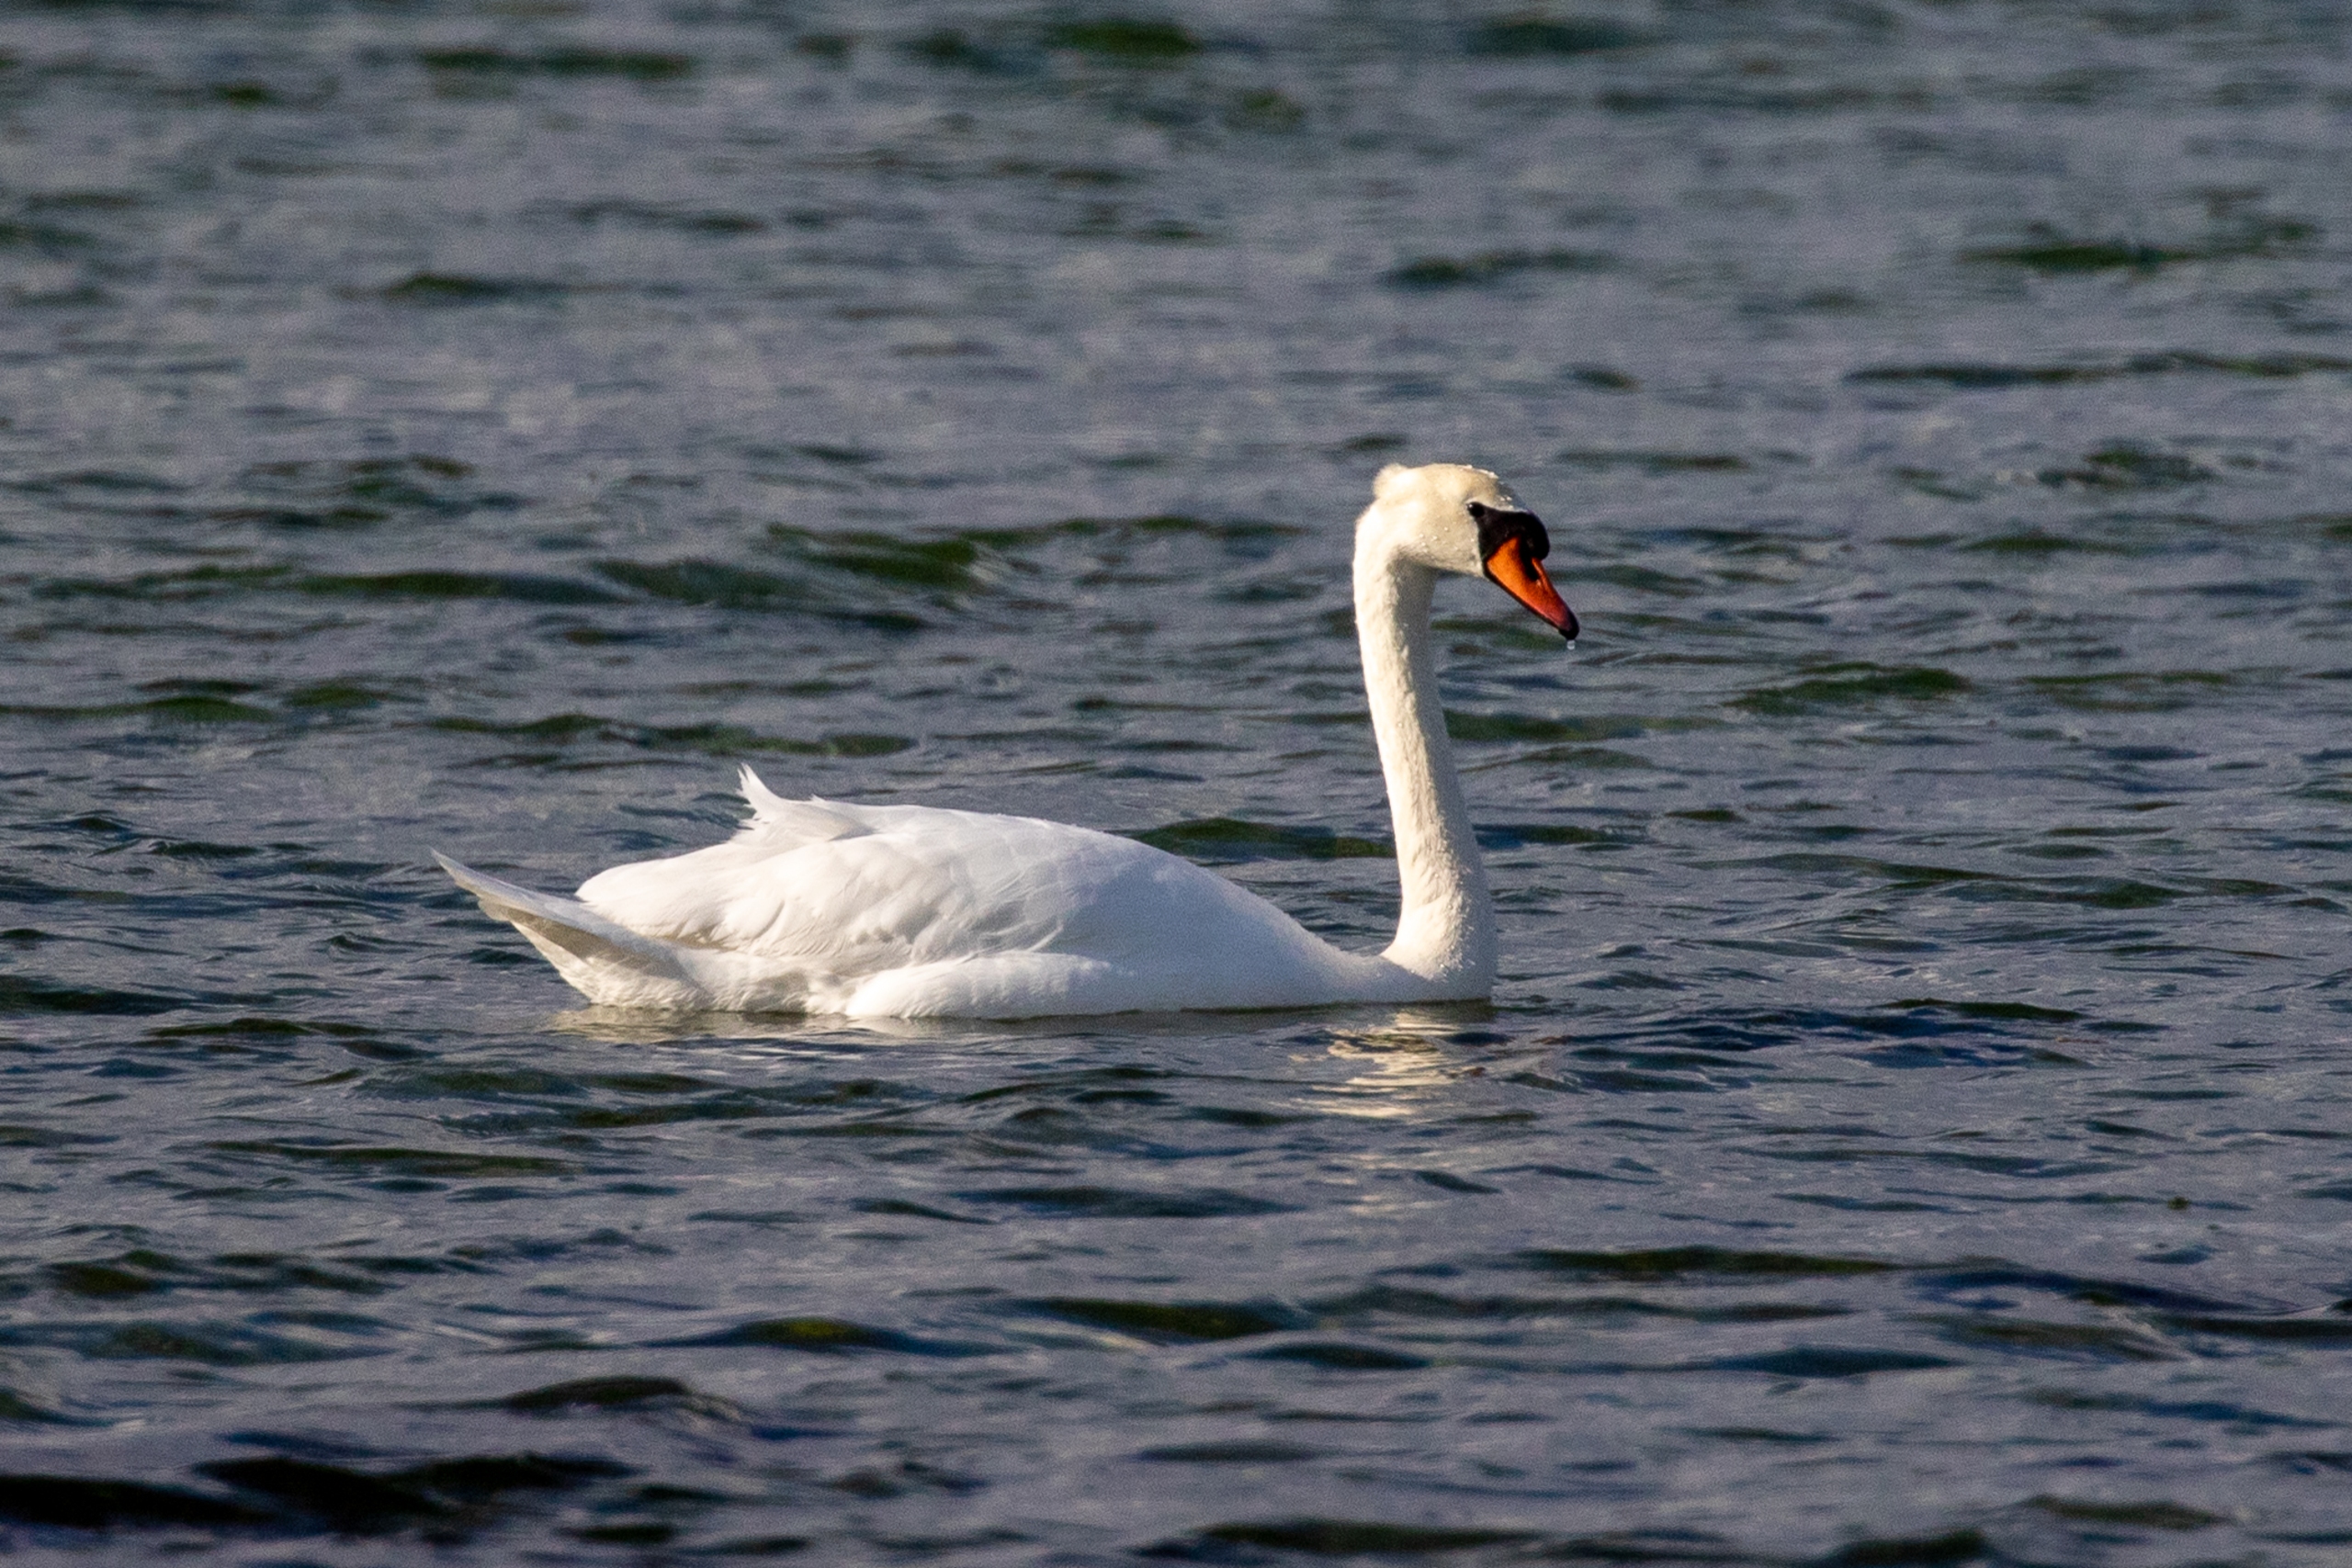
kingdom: Animalia
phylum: Chordata
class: Aves
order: Anseriformes
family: Anatidae
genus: Cygnus
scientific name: Cygnus olor
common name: Knopsvane
